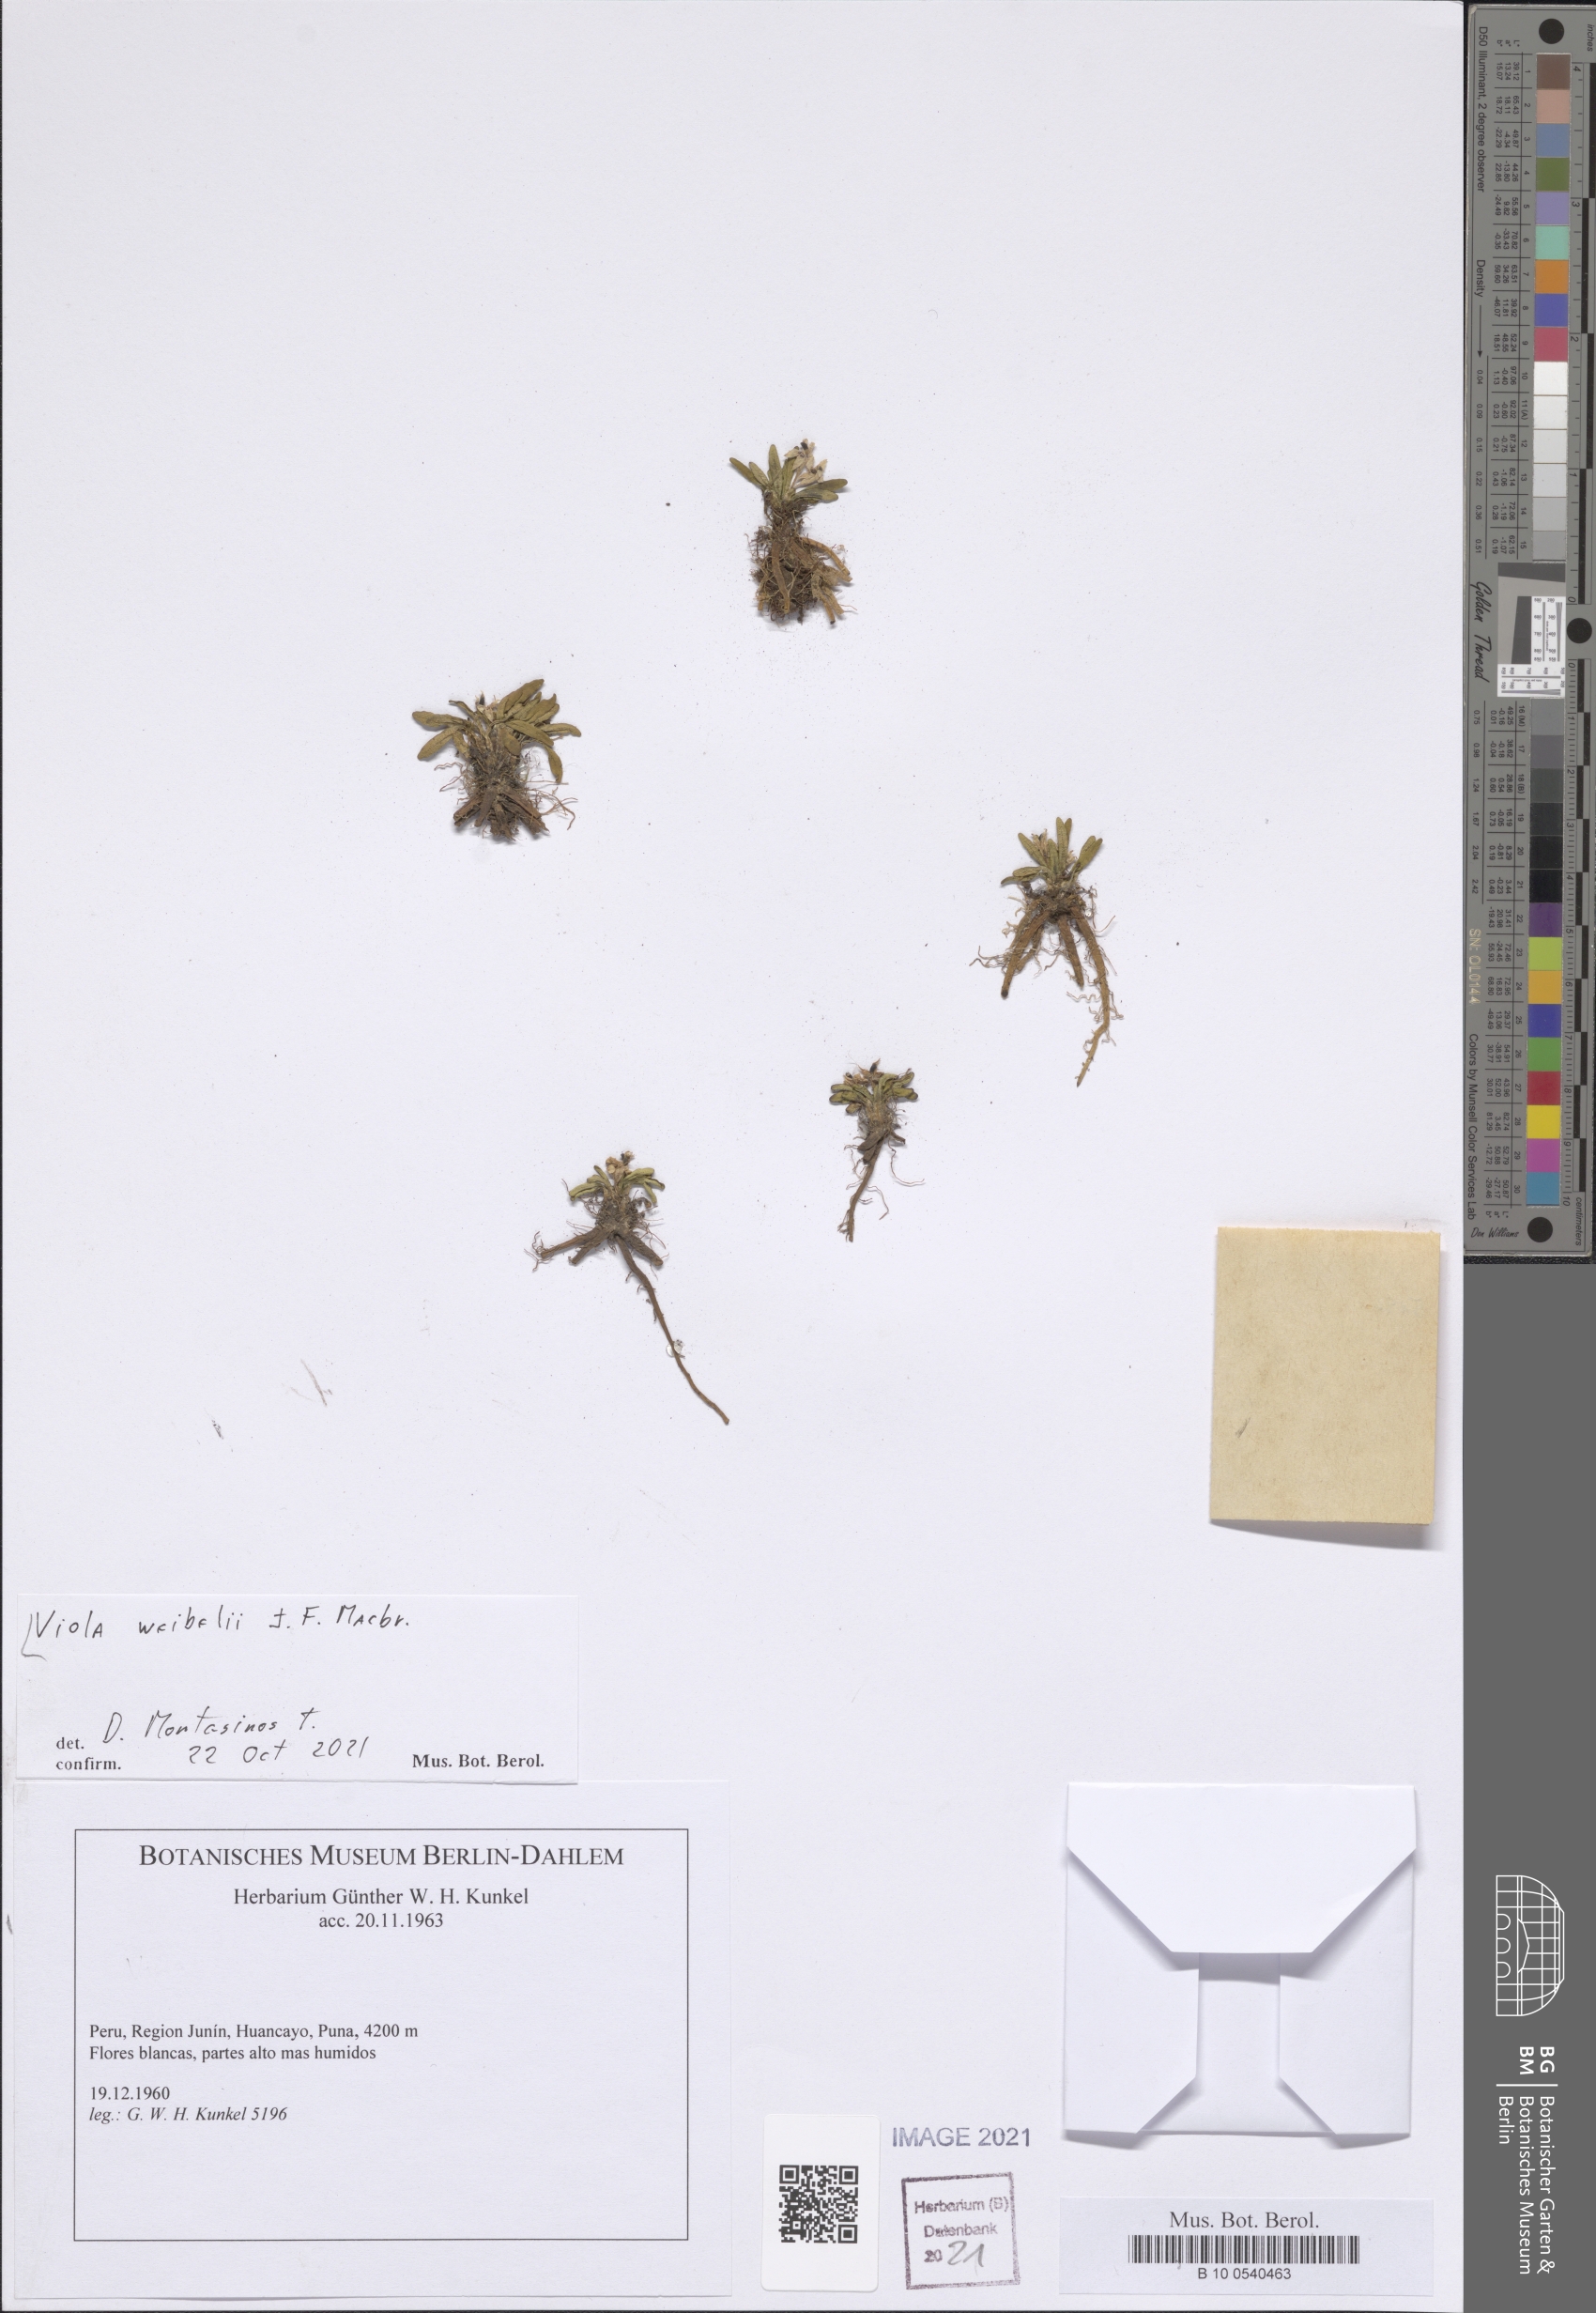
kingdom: Plantae
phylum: Tracheophyta
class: Magnoliopsida
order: Malpighiales
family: Violaceae
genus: Viola
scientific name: Viola weibelii
